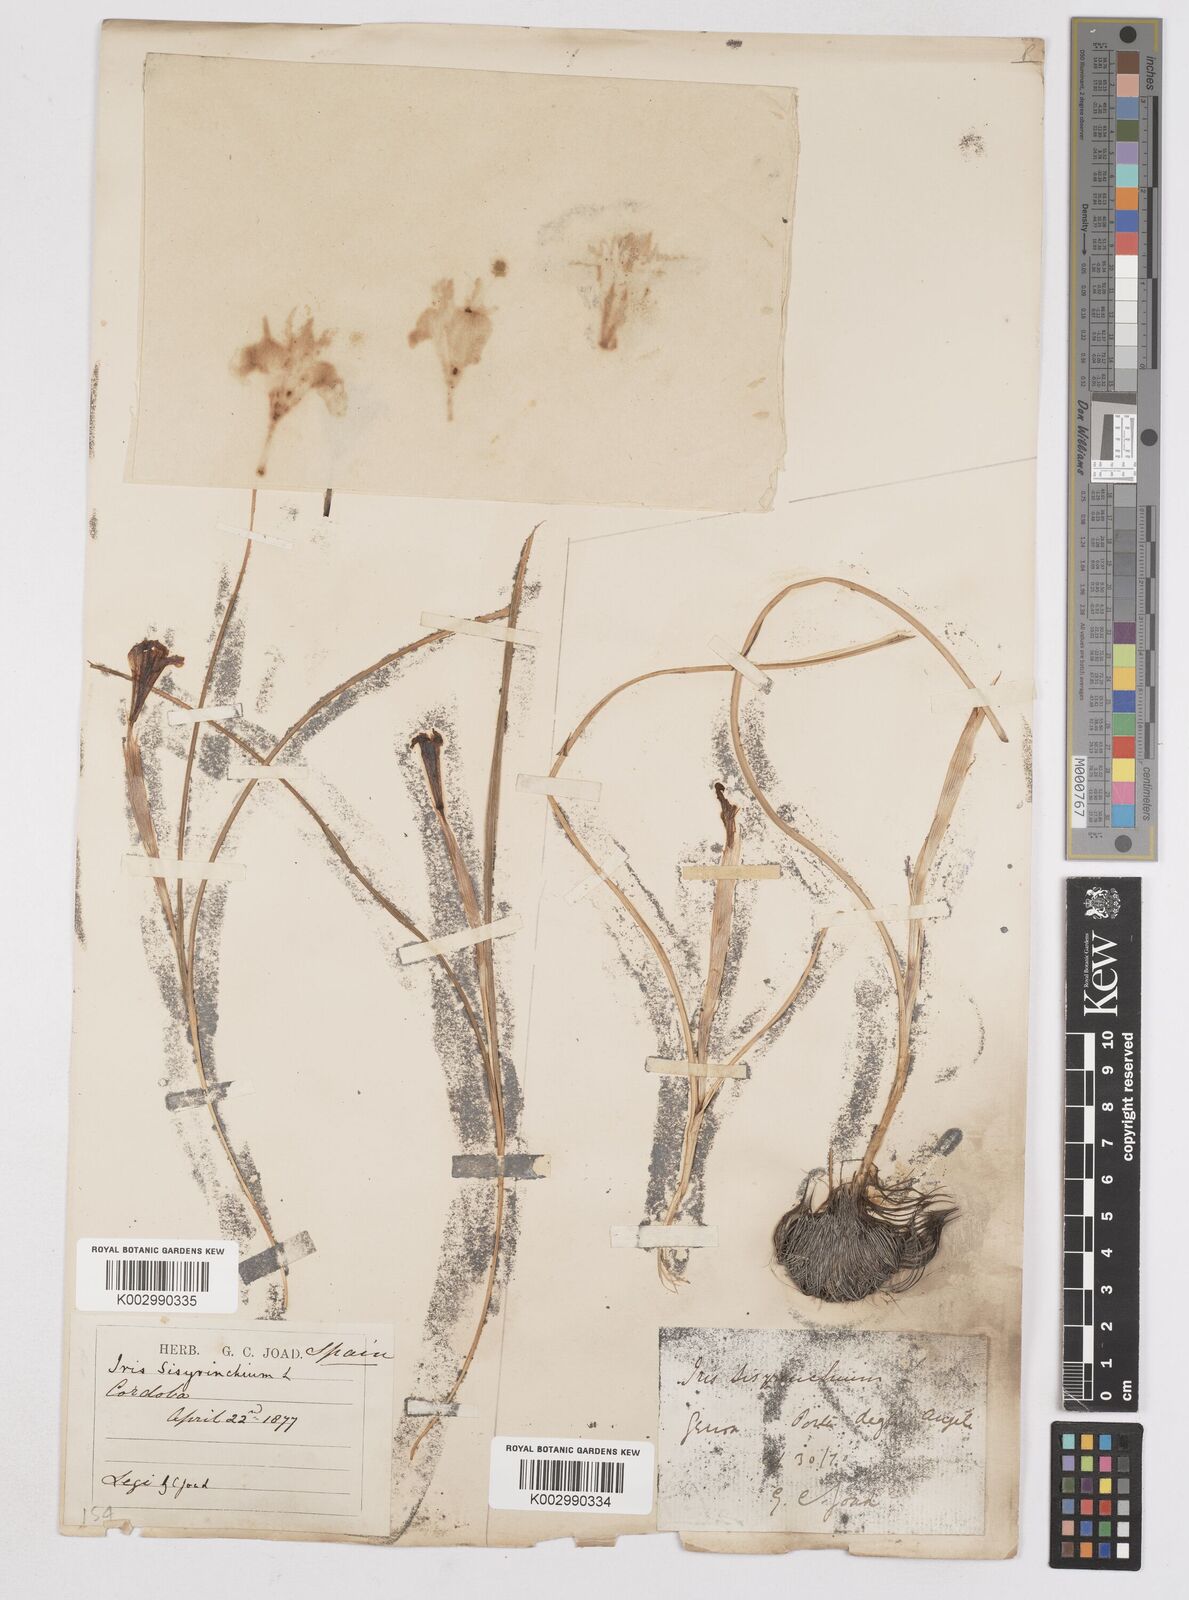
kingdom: Plantae
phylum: Tracheophyta
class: Liliopsida
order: Asparagales
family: Iridaceae
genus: Moraea
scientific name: Moraea sisyrinchium
